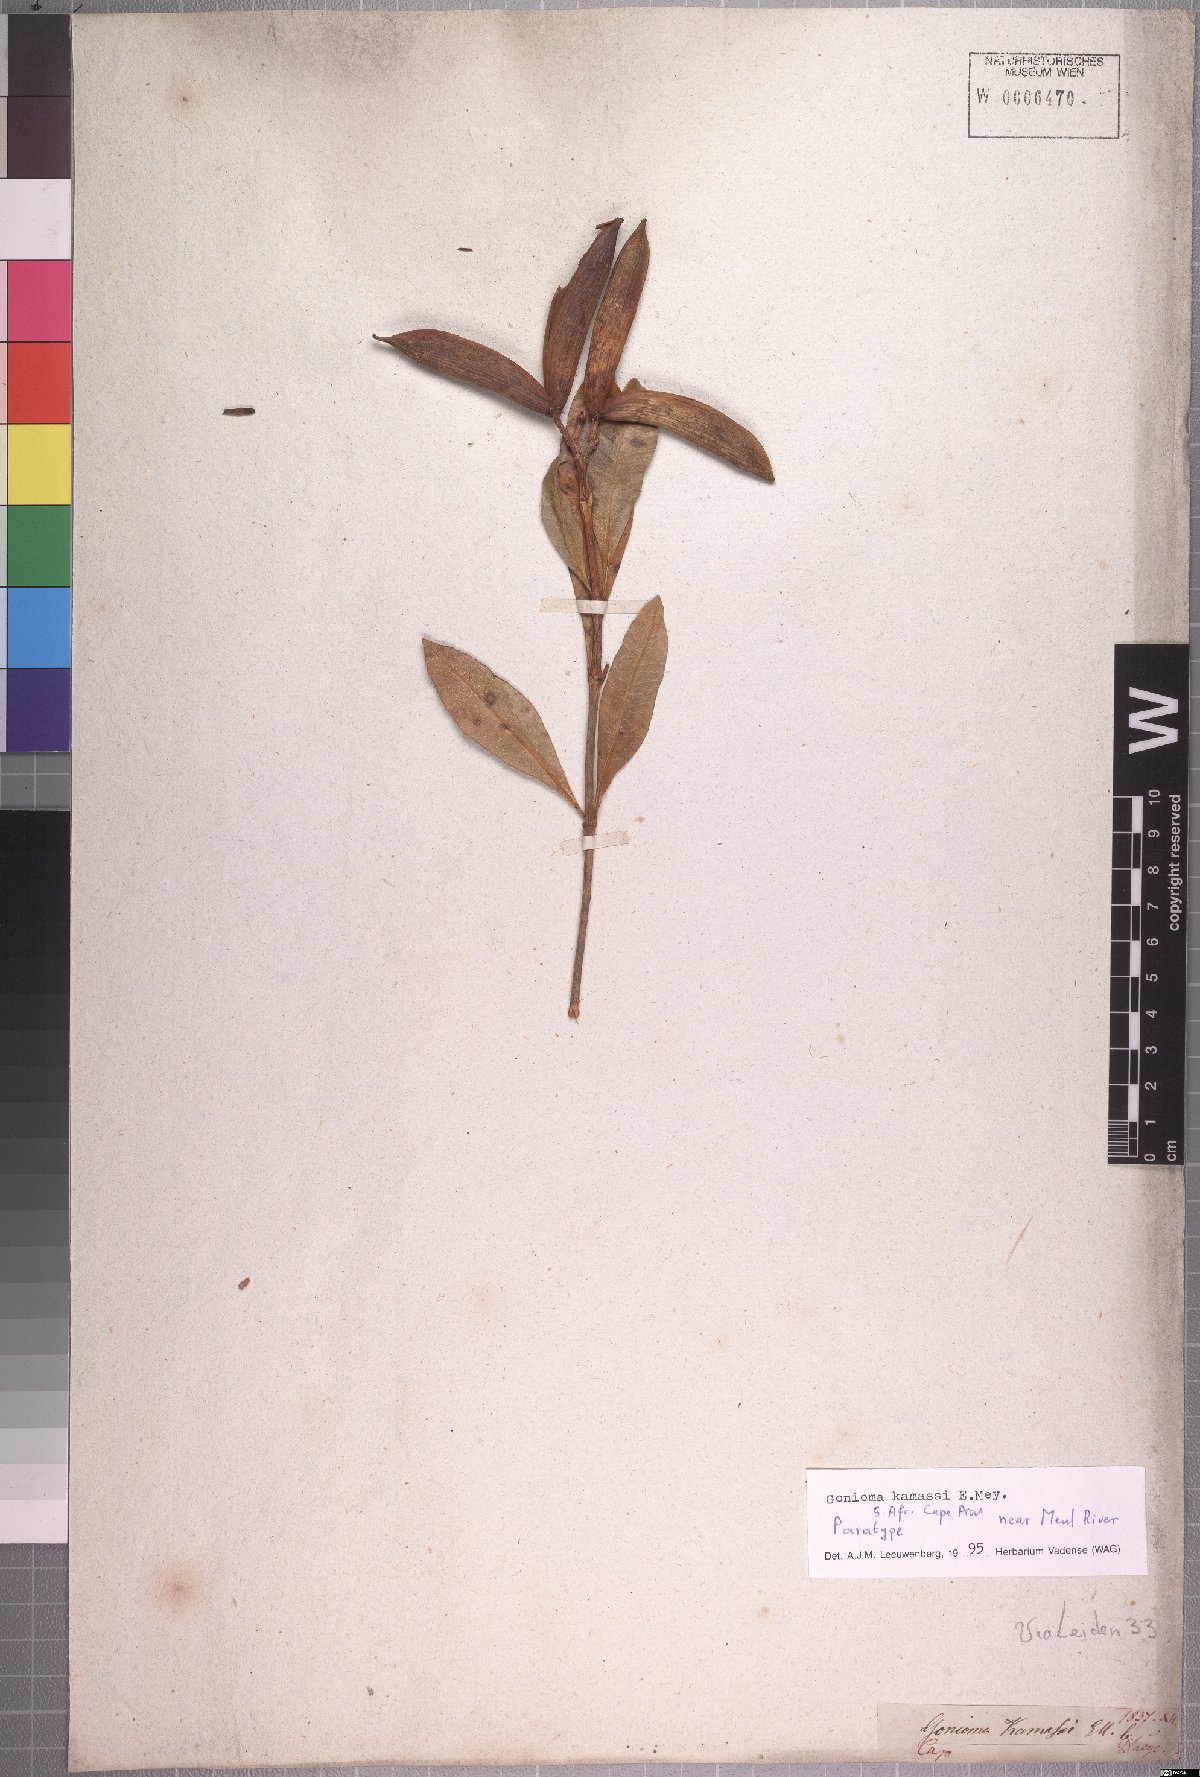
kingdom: Plantae
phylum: Tracheophyta
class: Magnoliopsida
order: Gentianales
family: Apocynaceae
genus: Gonioma
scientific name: Gonioma kamassi
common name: Kamassi
